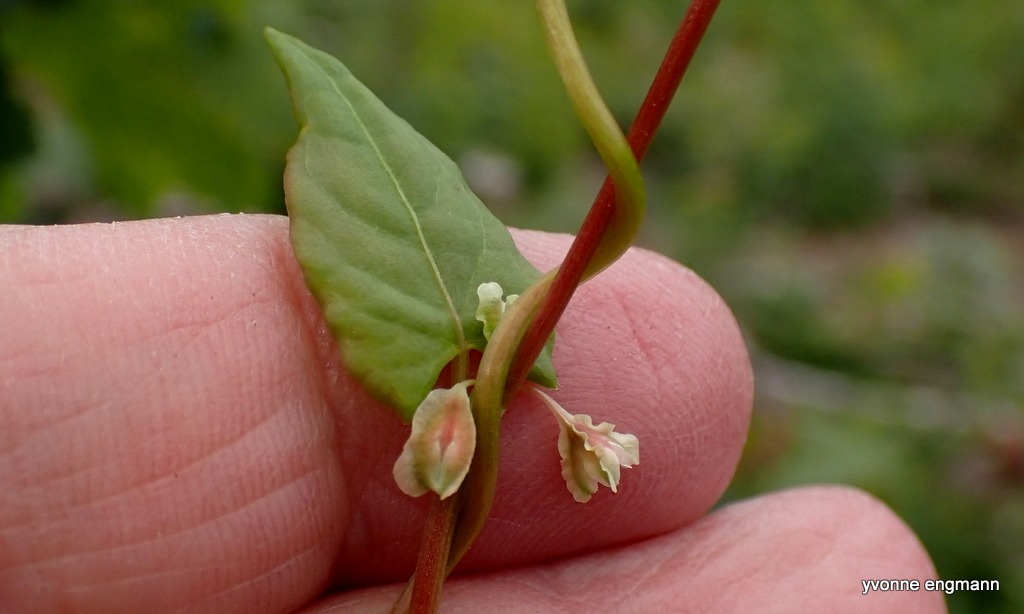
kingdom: Plantae
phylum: Tracheophyta
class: Magnoliopsida
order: Caryophyllales
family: Polygonaceae
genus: Fallopia
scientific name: Fallopia dumetorum
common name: Vinge-pileurt
